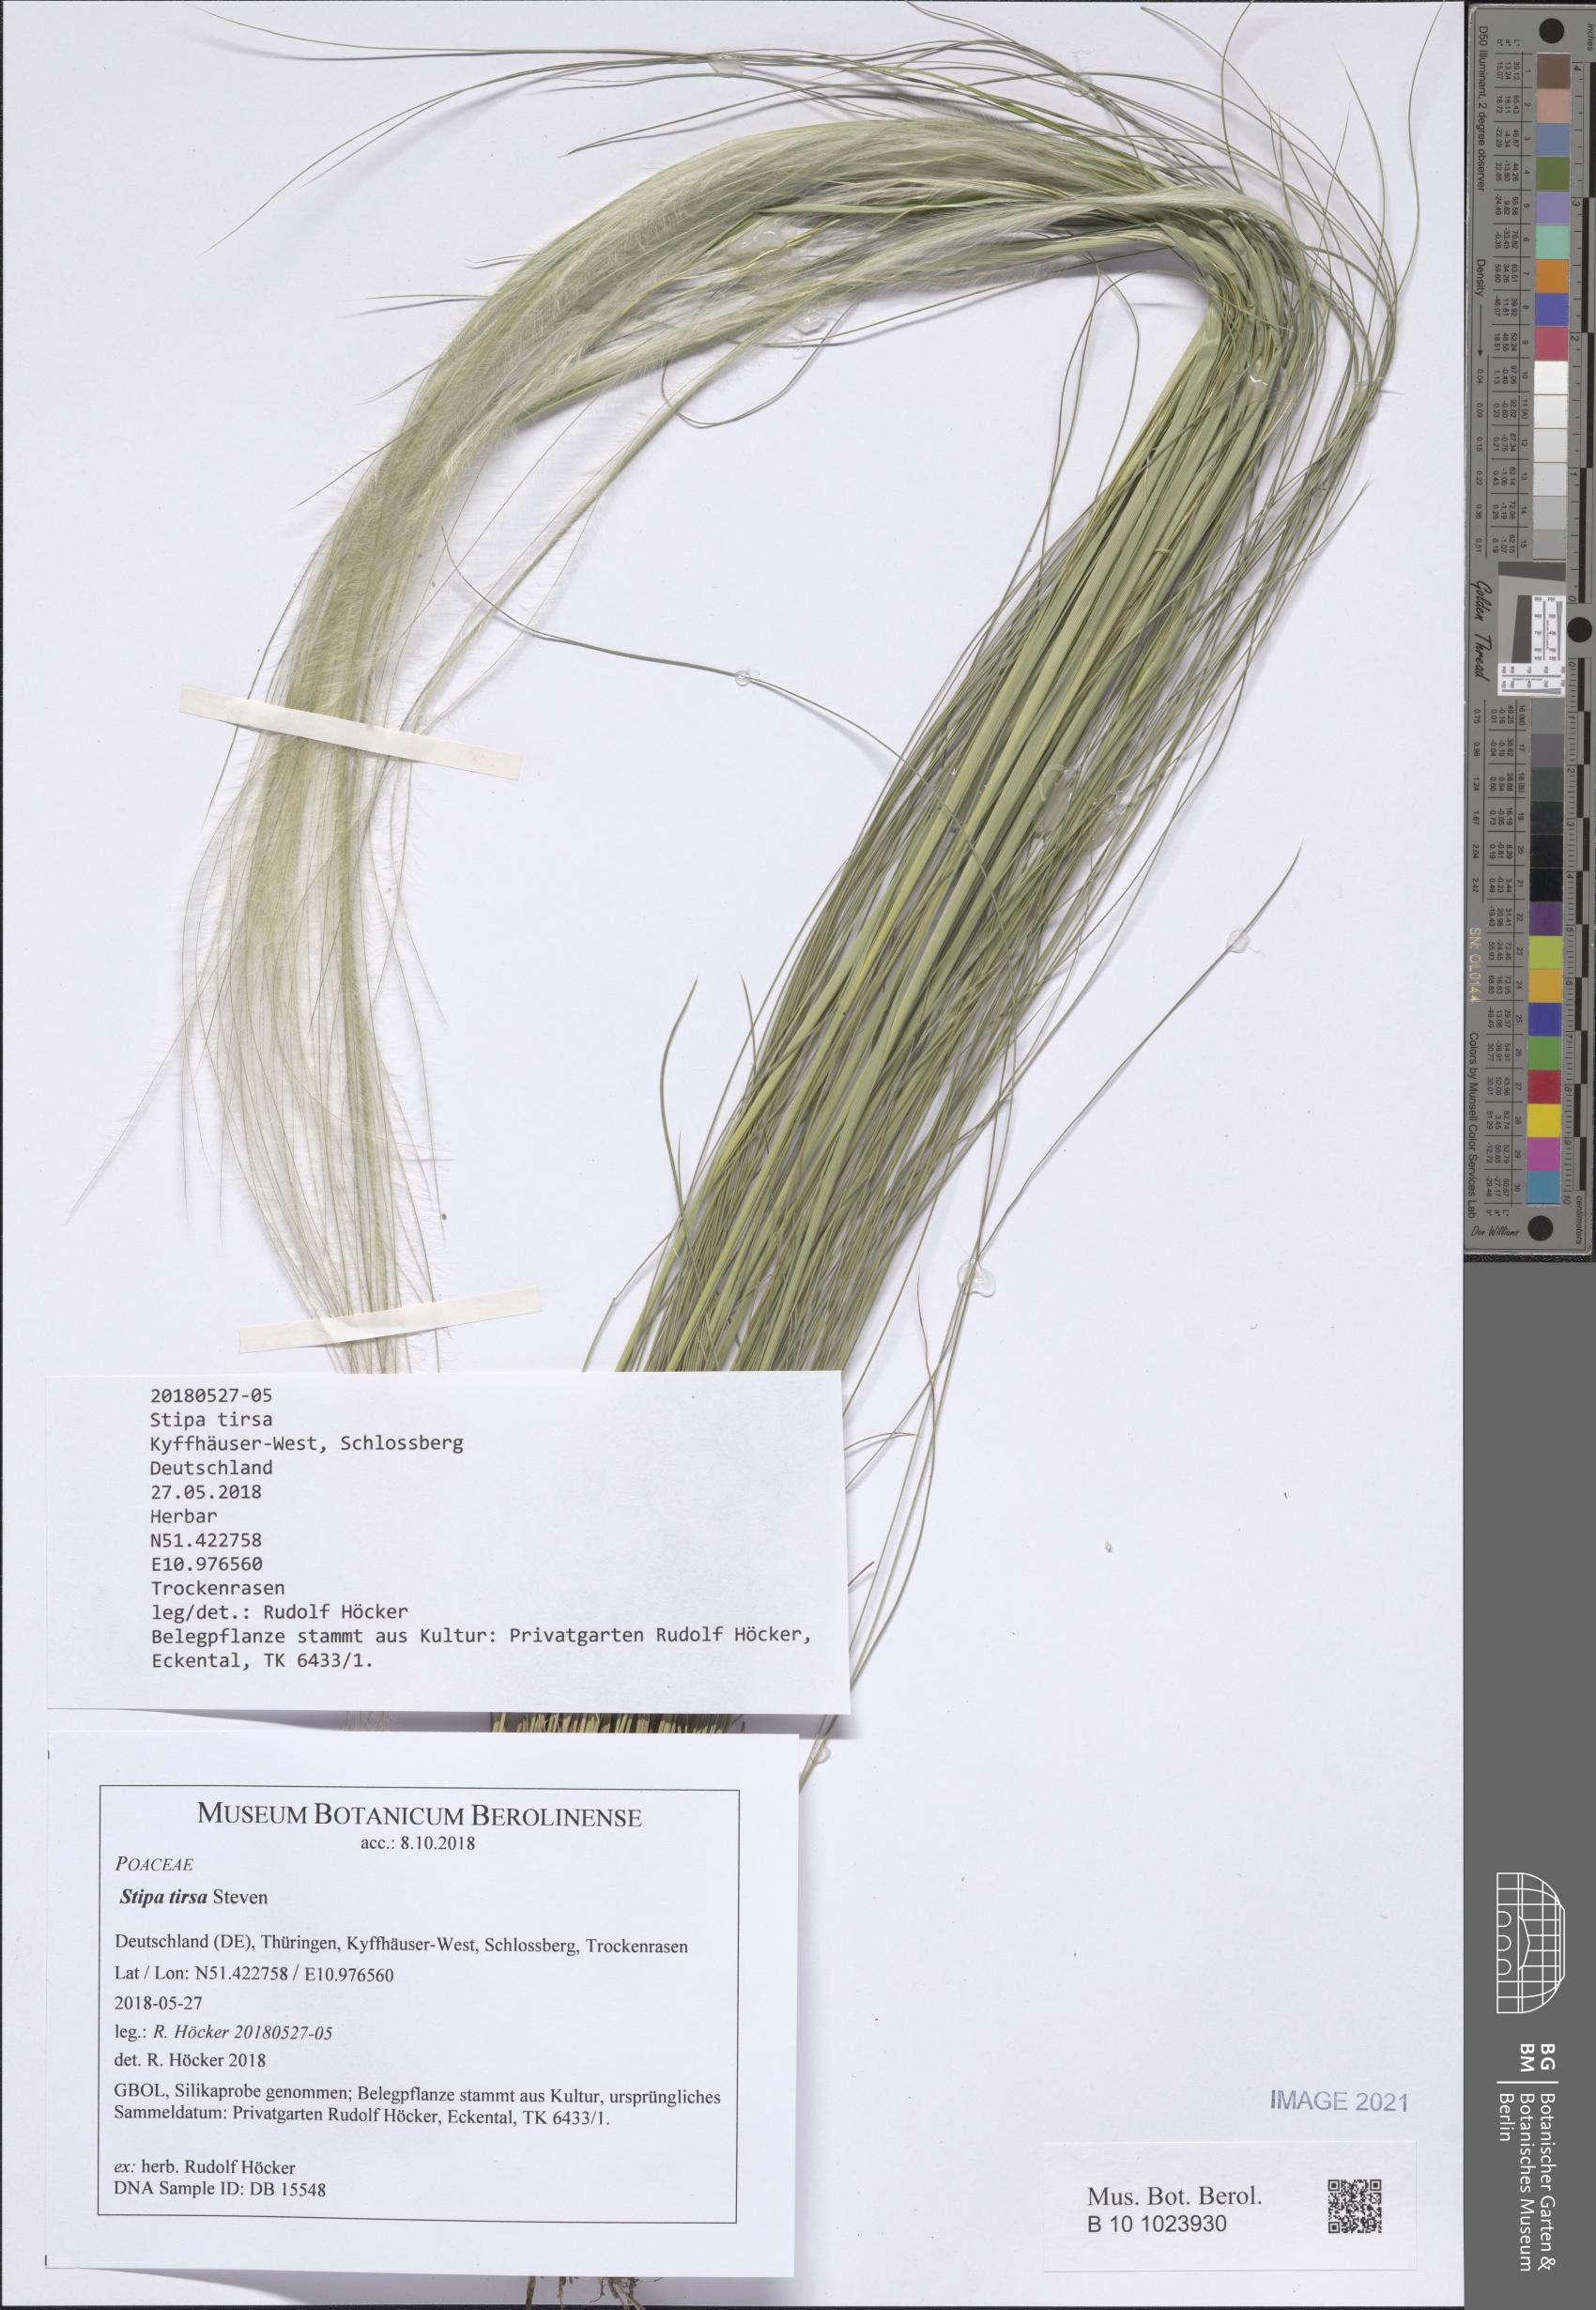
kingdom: Plantae
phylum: Tracheophyta
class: Liliopsida
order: Poales
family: Poaceae
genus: Stipa
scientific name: Stipa tirsa
